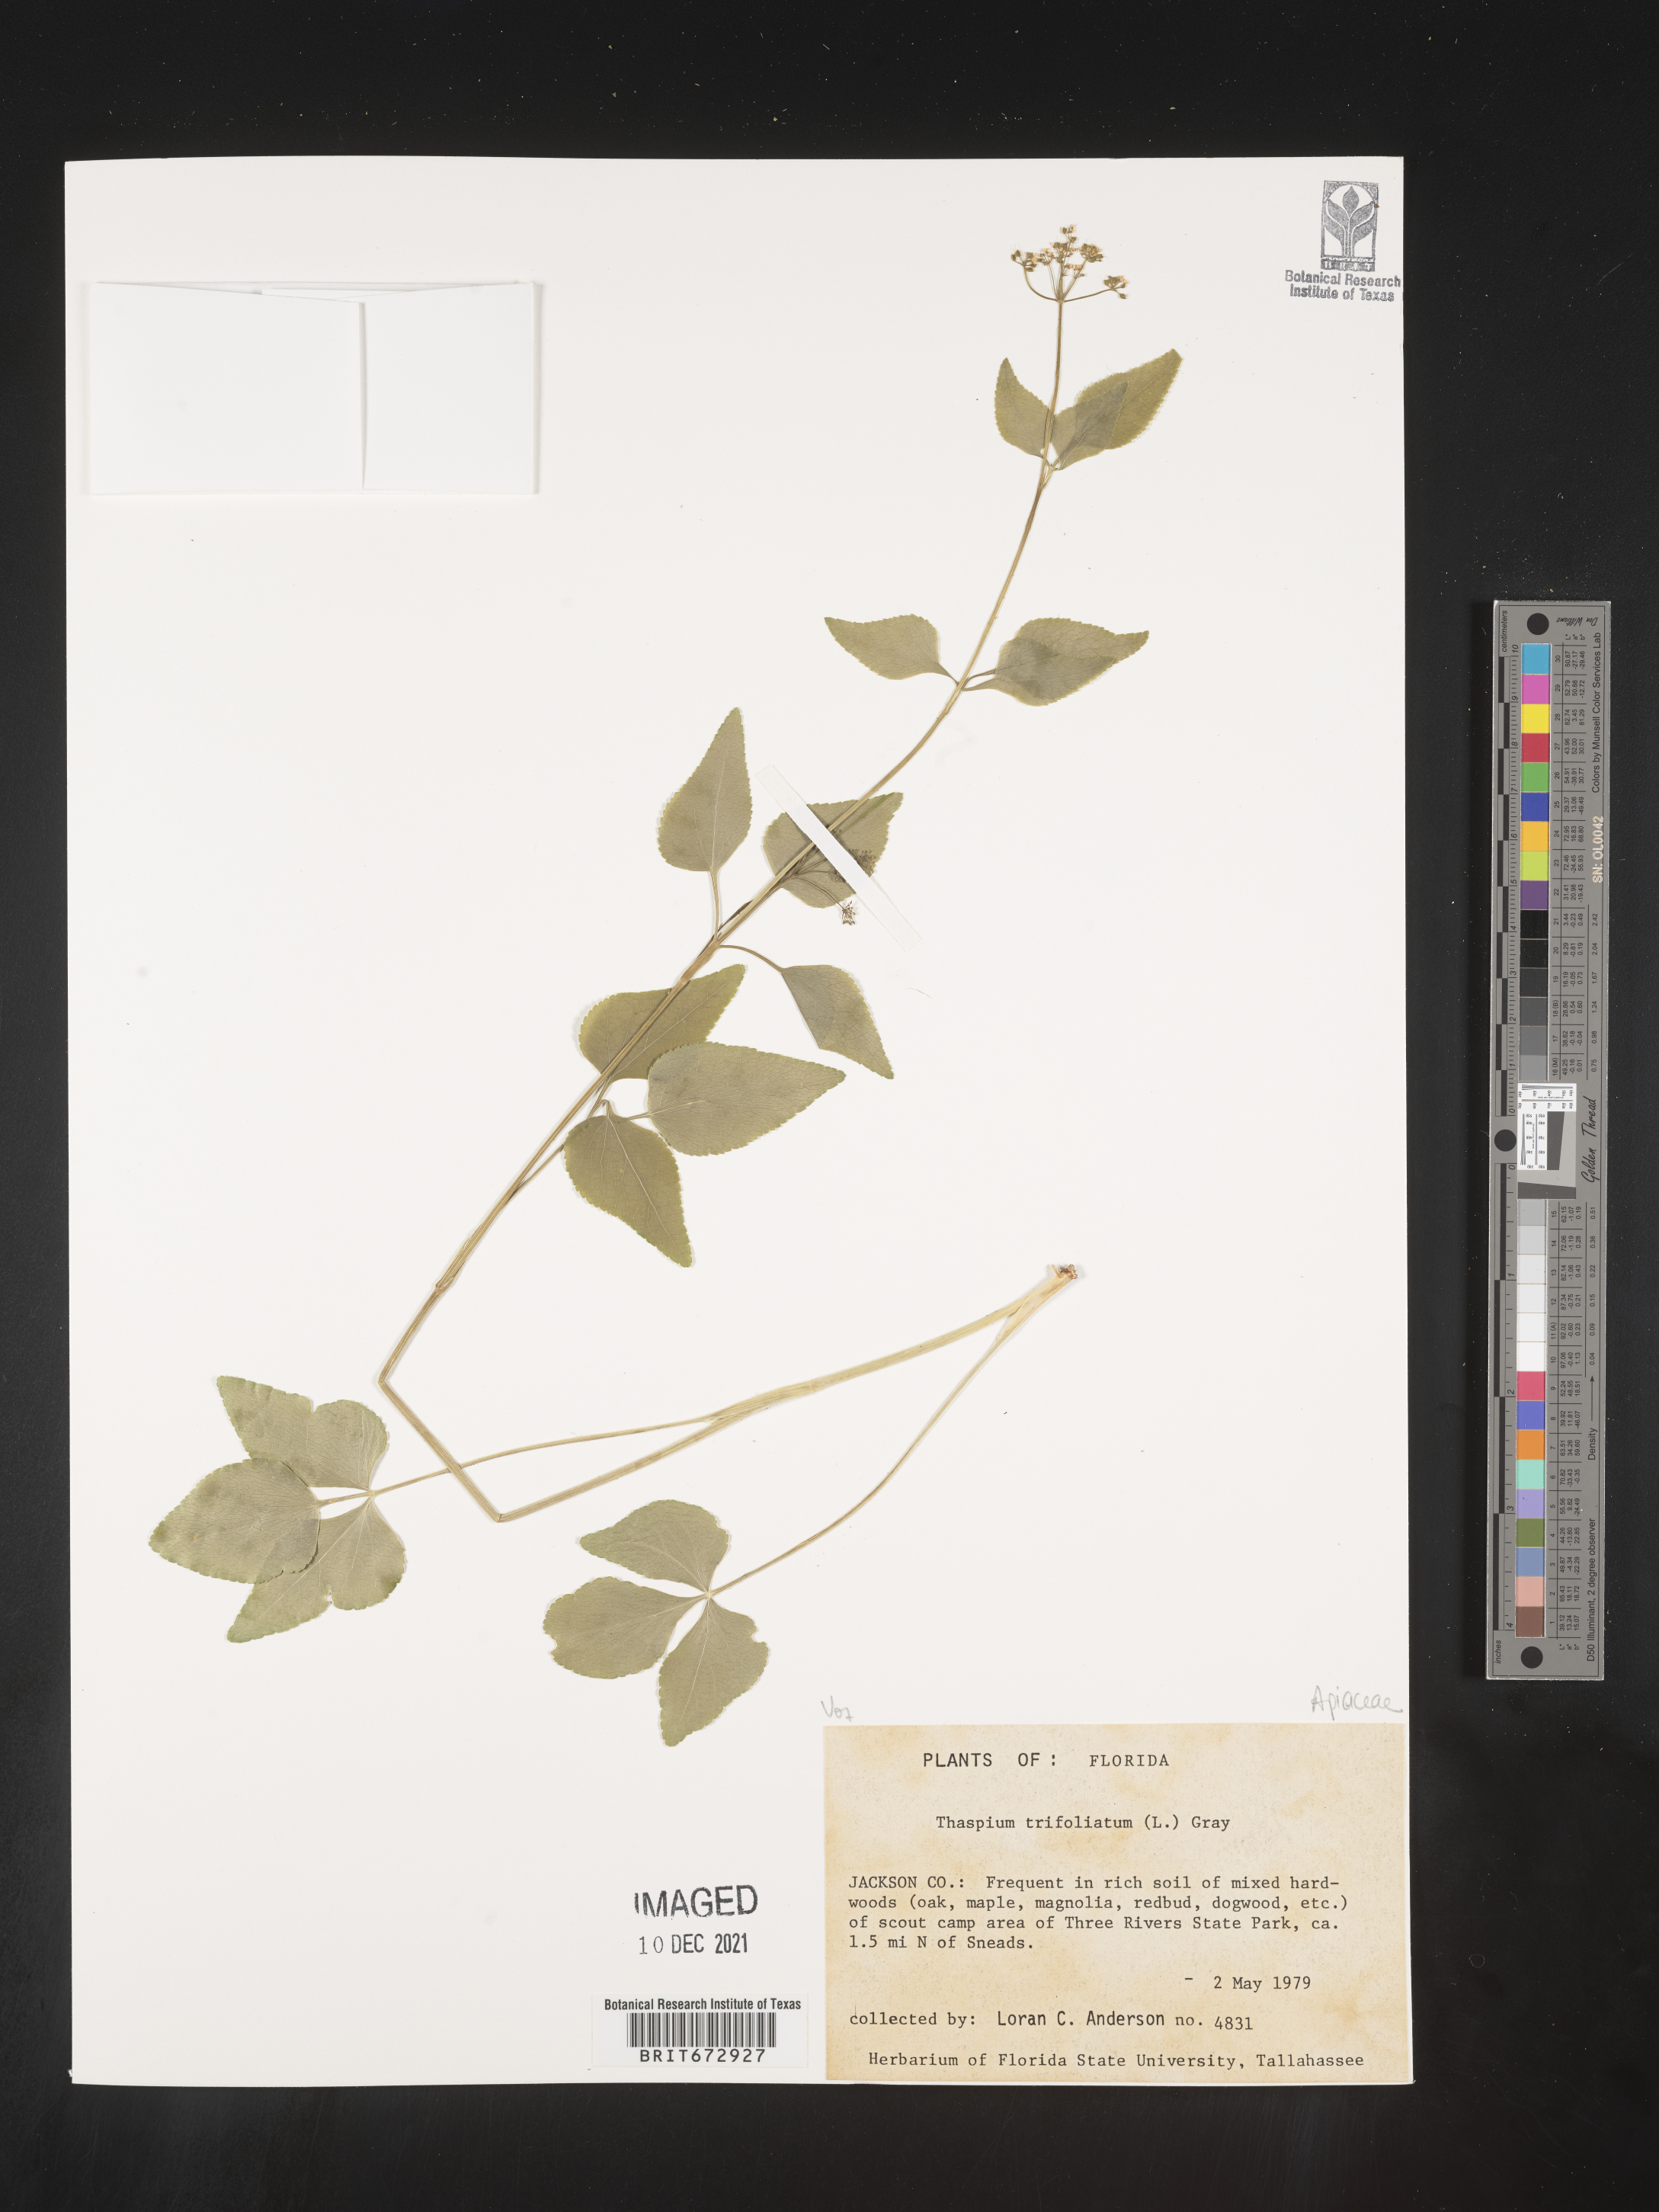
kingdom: Plantae
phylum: Tracheophyta
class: Magnoliopsida
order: Apiales
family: Apiaceae
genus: Thaspium
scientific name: Thaspium
